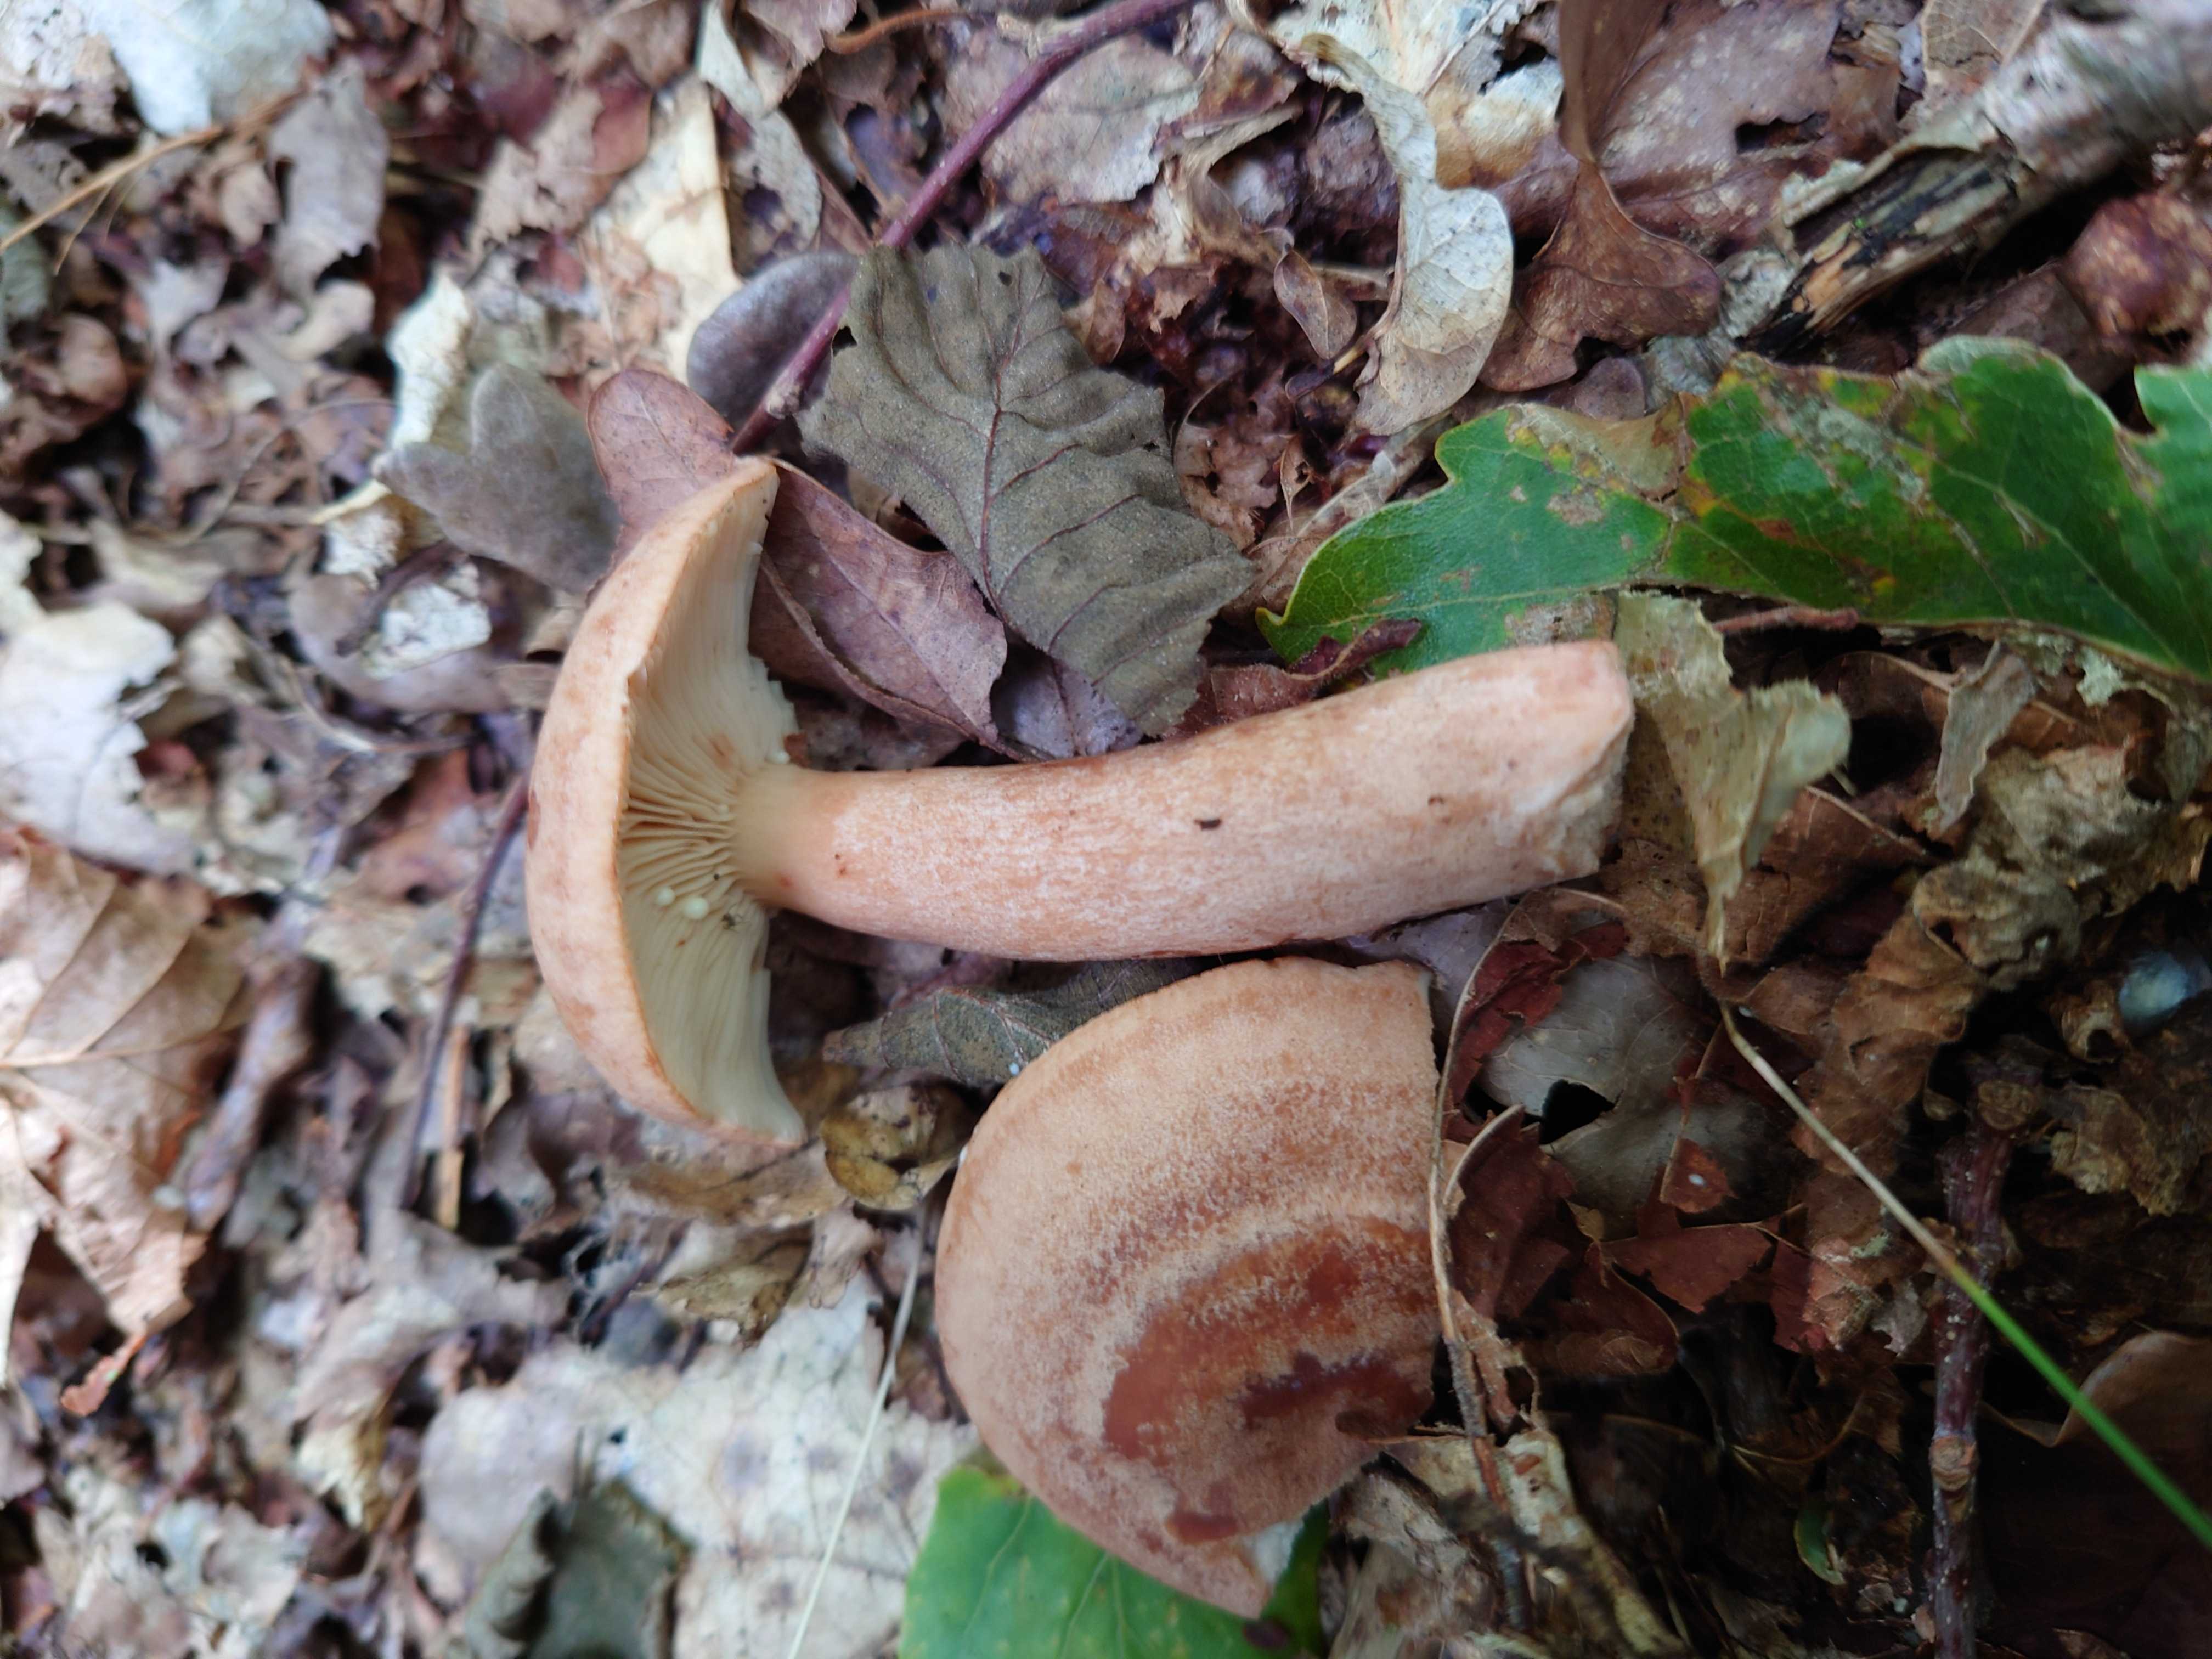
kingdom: Fungi
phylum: Basidiomycota
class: Agaricomycetes
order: Russulales
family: Russulaceae
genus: Lactarius
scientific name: Lactarius quietus
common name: ege-mælkehat
